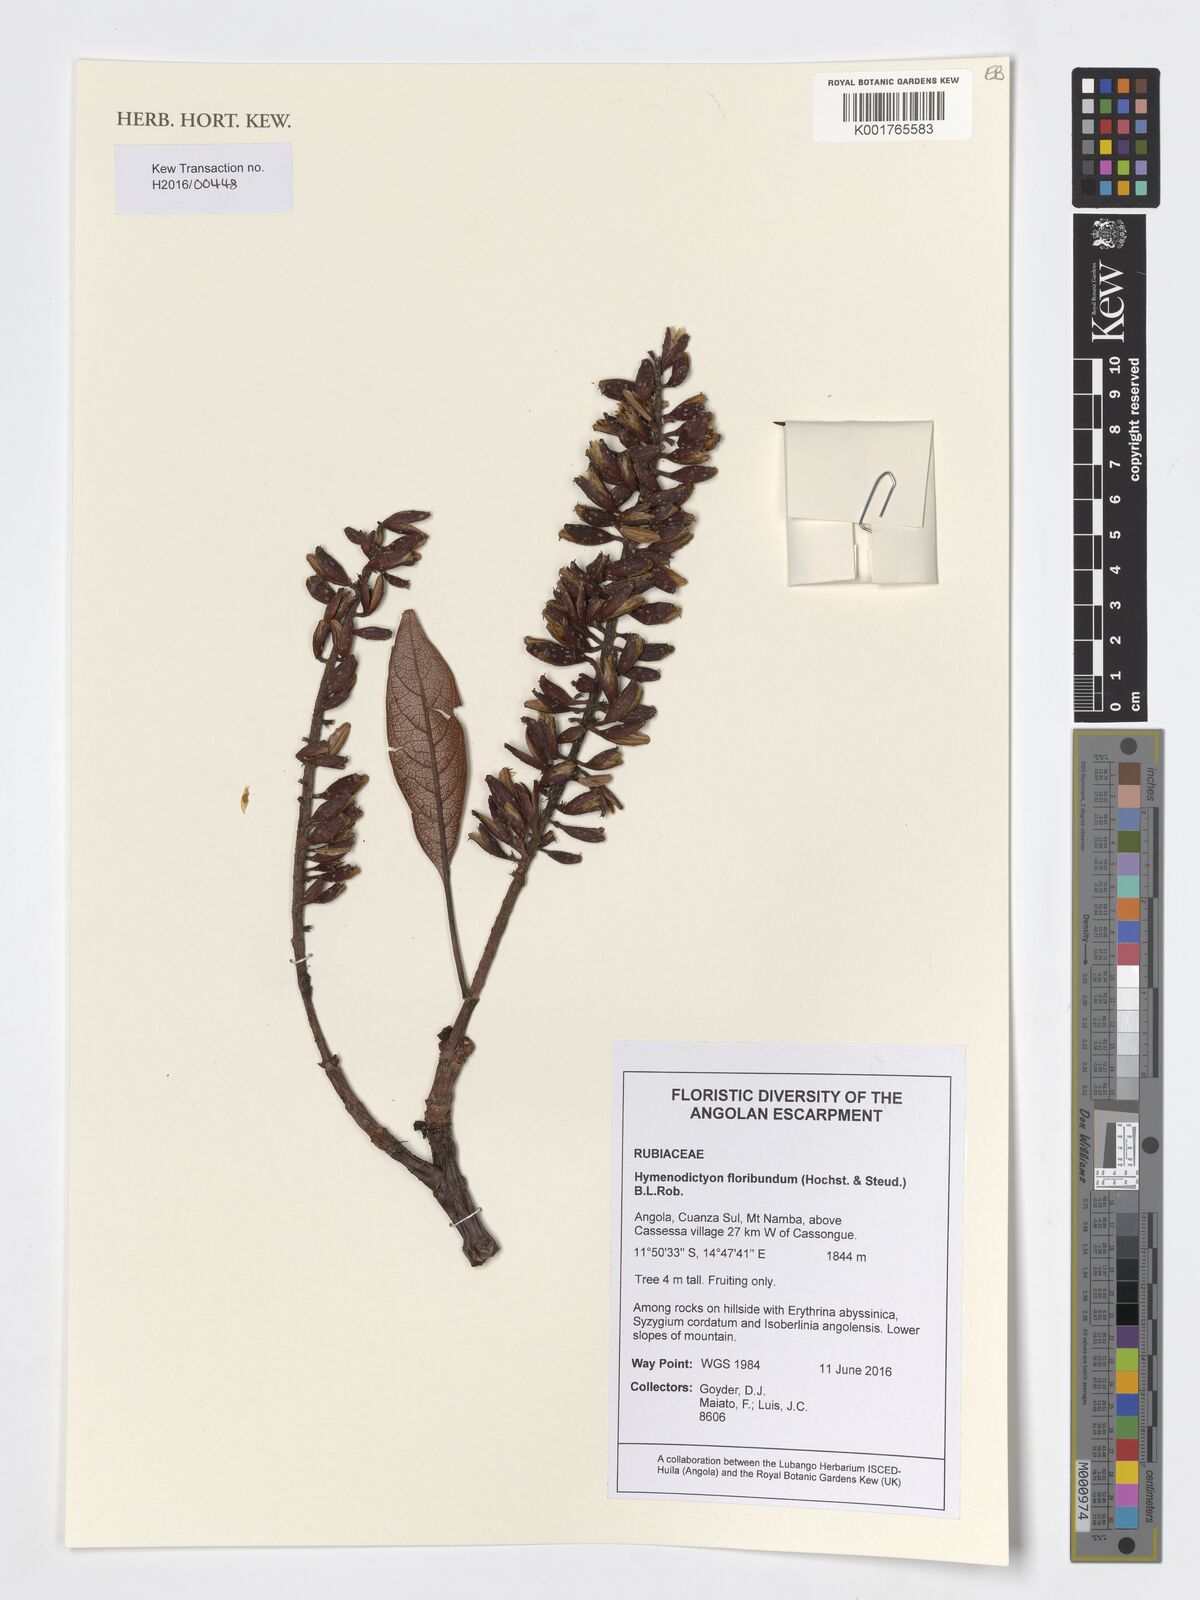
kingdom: Plantae
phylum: Tracheophyta
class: Magnoliopsida
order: Gentianales
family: Rubiaceae
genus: Hymenodictyon
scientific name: Hymenodictyon floribundum
